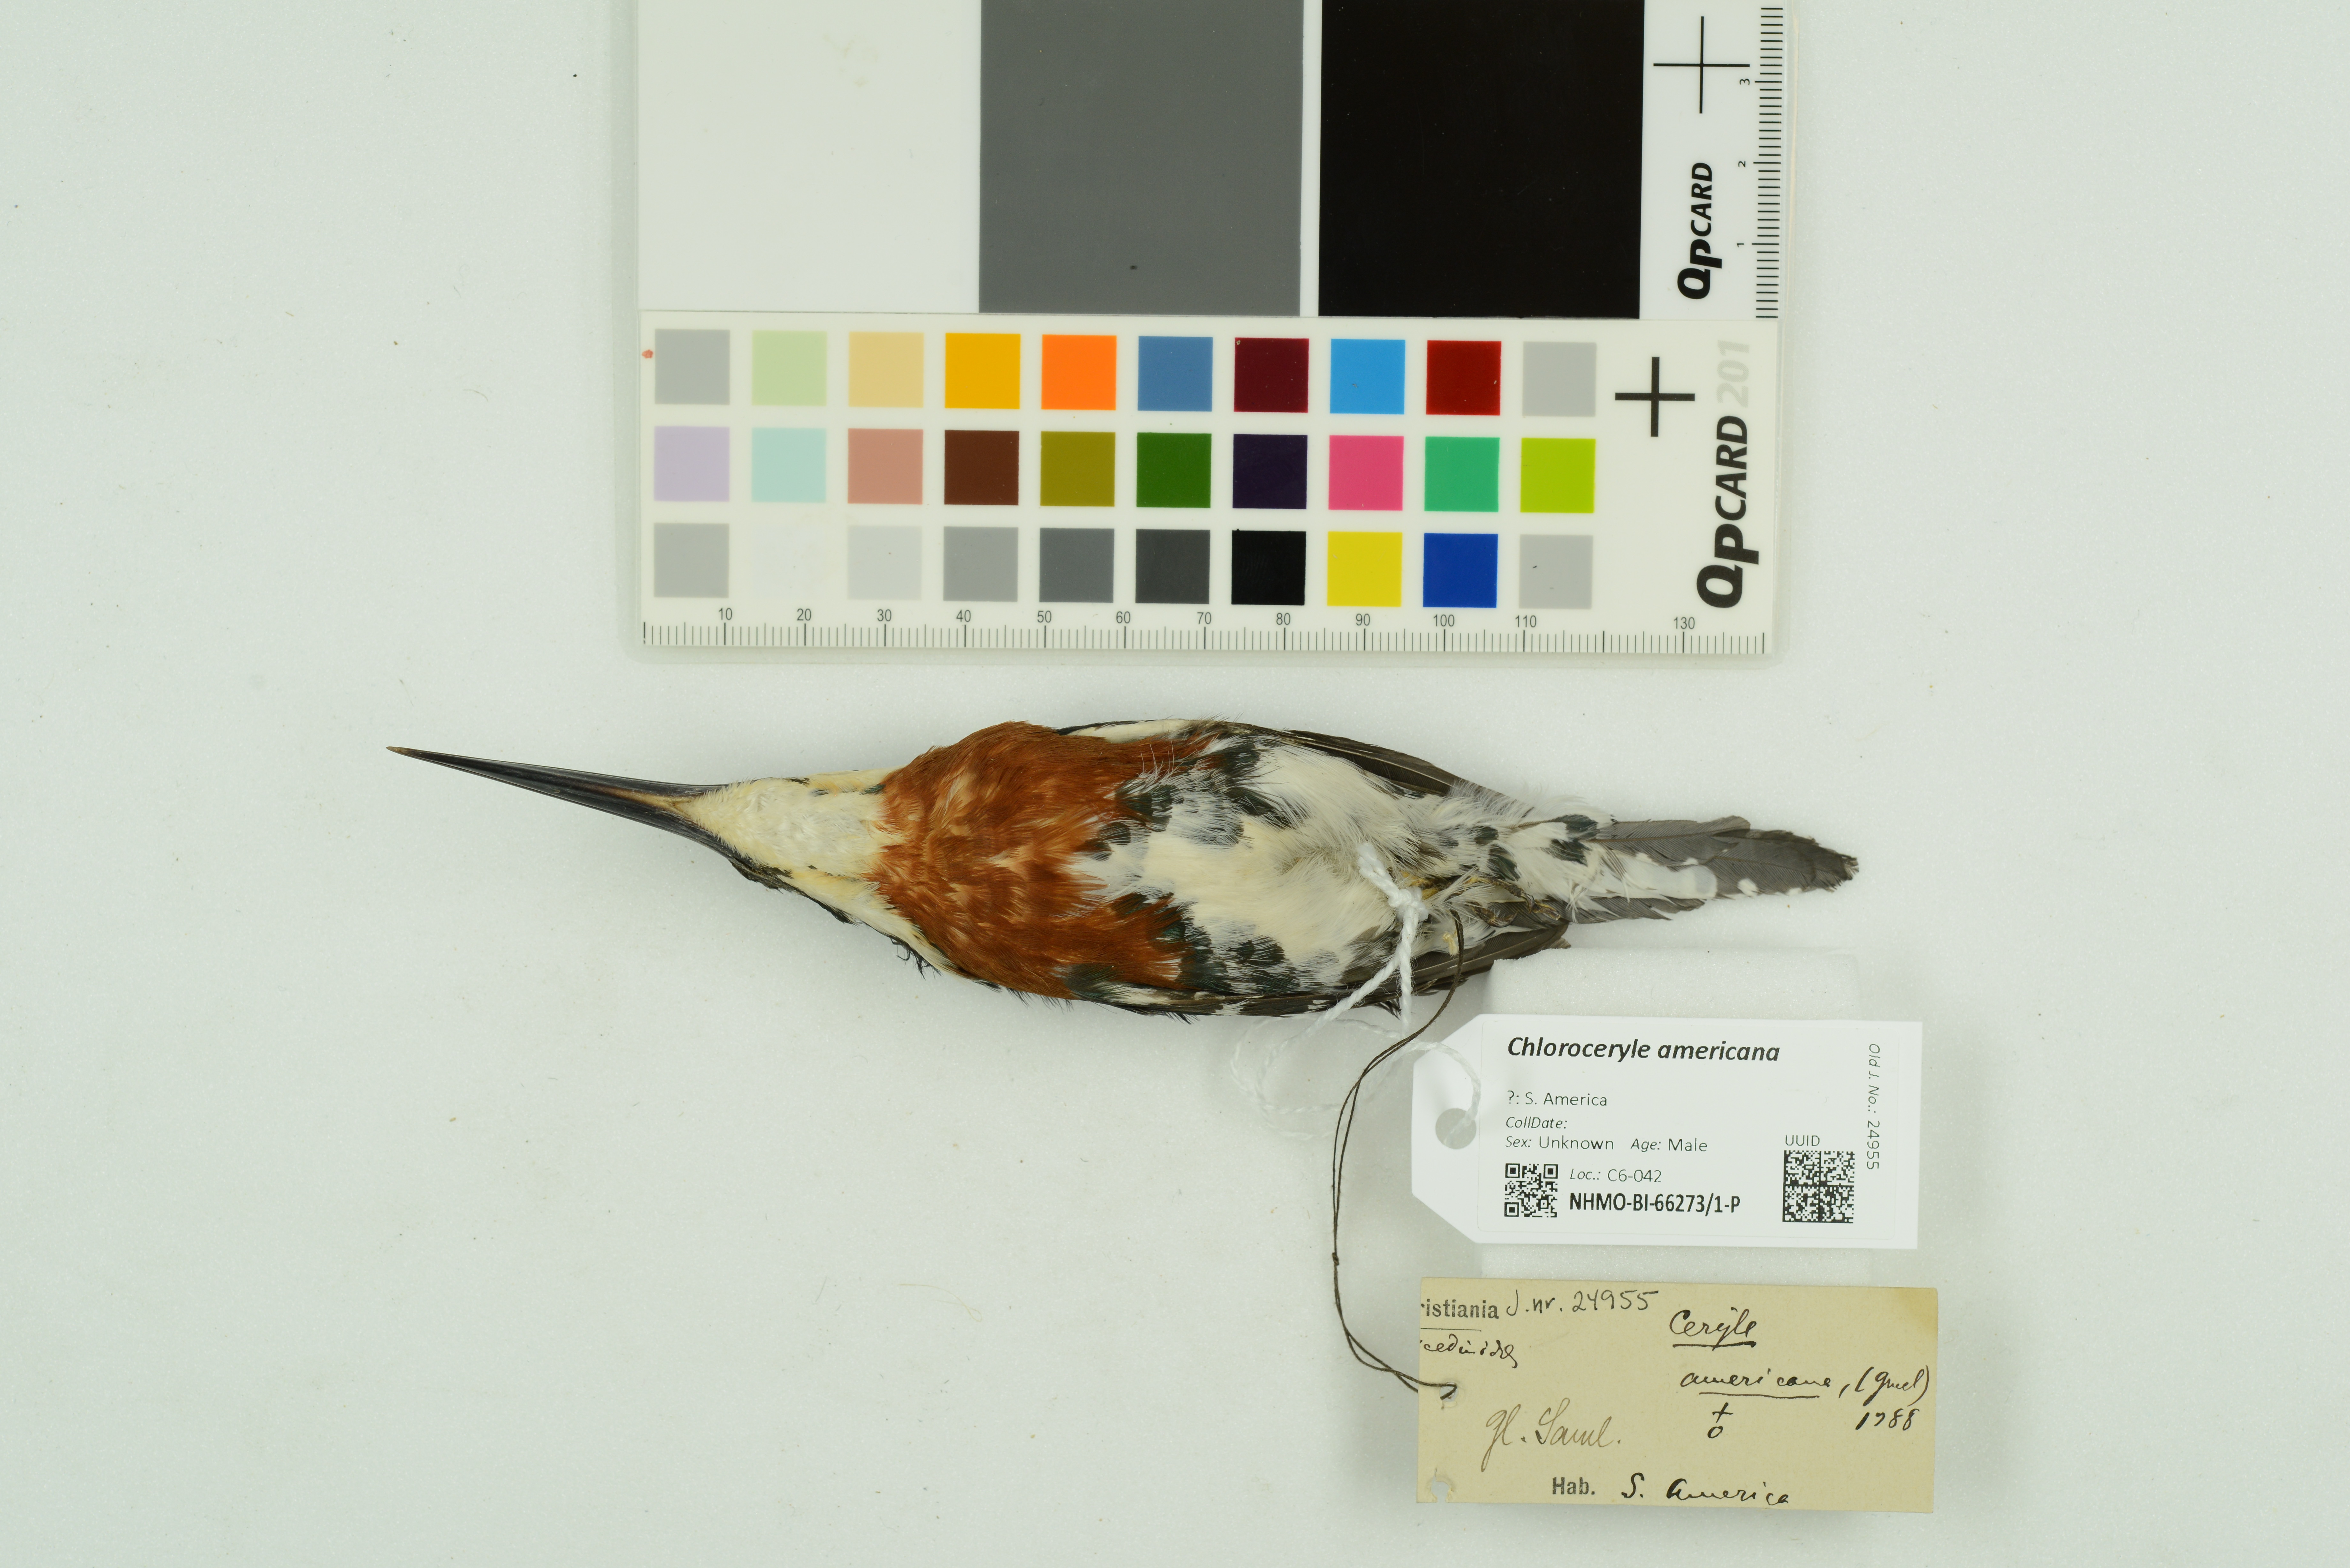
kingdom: Animalia
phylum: Chordata
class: Aves
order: Coraciiformes
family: Alcedinidae
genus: Chloroceryle
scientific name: Chloroceryle americana
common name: Green kingfisher
